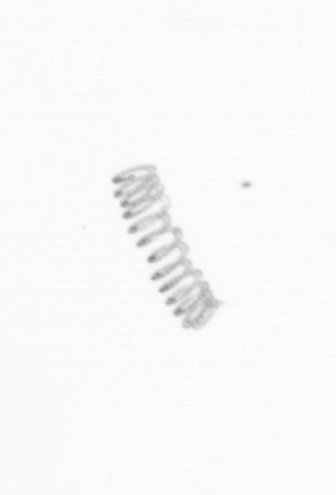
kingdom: Chromista
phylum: Ochrophyta
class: Bacillariophyceae
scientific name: Bacillariophyceae
